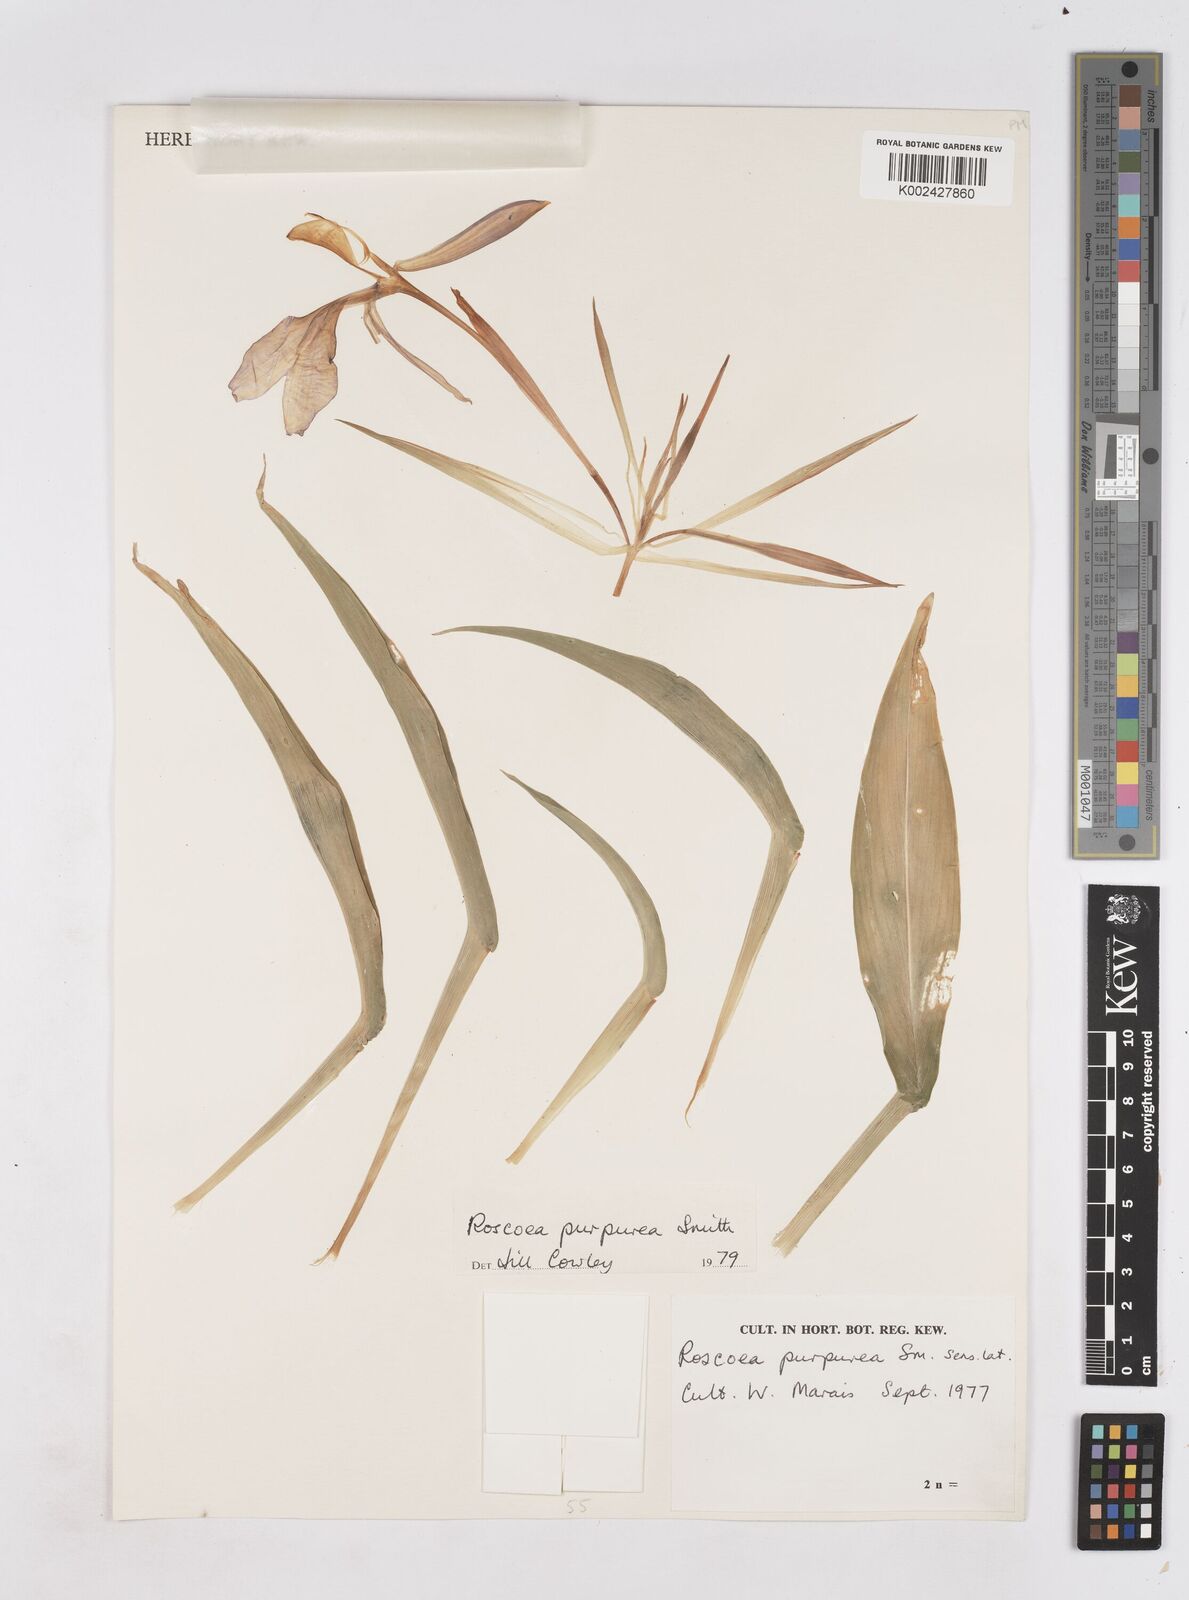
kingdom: Plantae
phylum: Tracheophyta
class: Liliopsida
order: Zingiberales
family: Zingiberaceae
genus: Roscoea
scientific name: Roscoea purpurea
